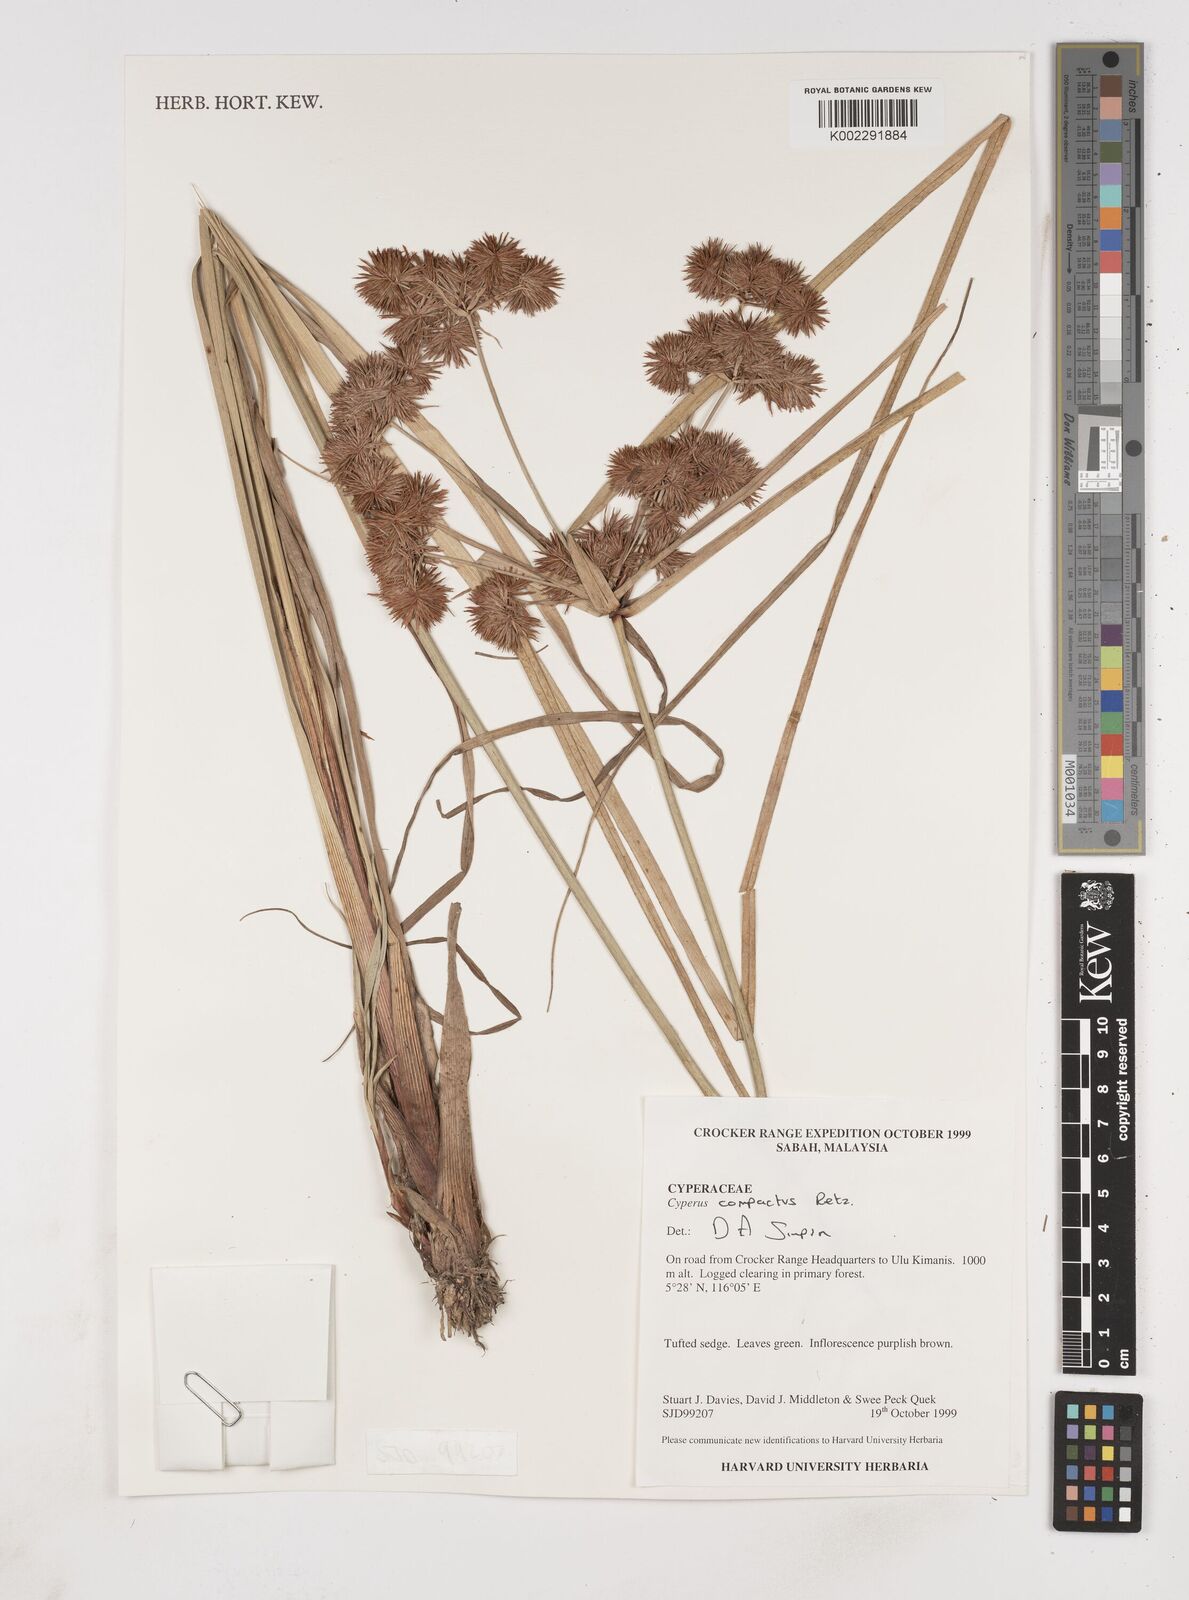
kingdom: Plantae
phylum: Tracheophyta
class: Liliopsida
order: Poales
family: Cyperaceae
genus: Cyperus
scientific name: Cyperus compactus
